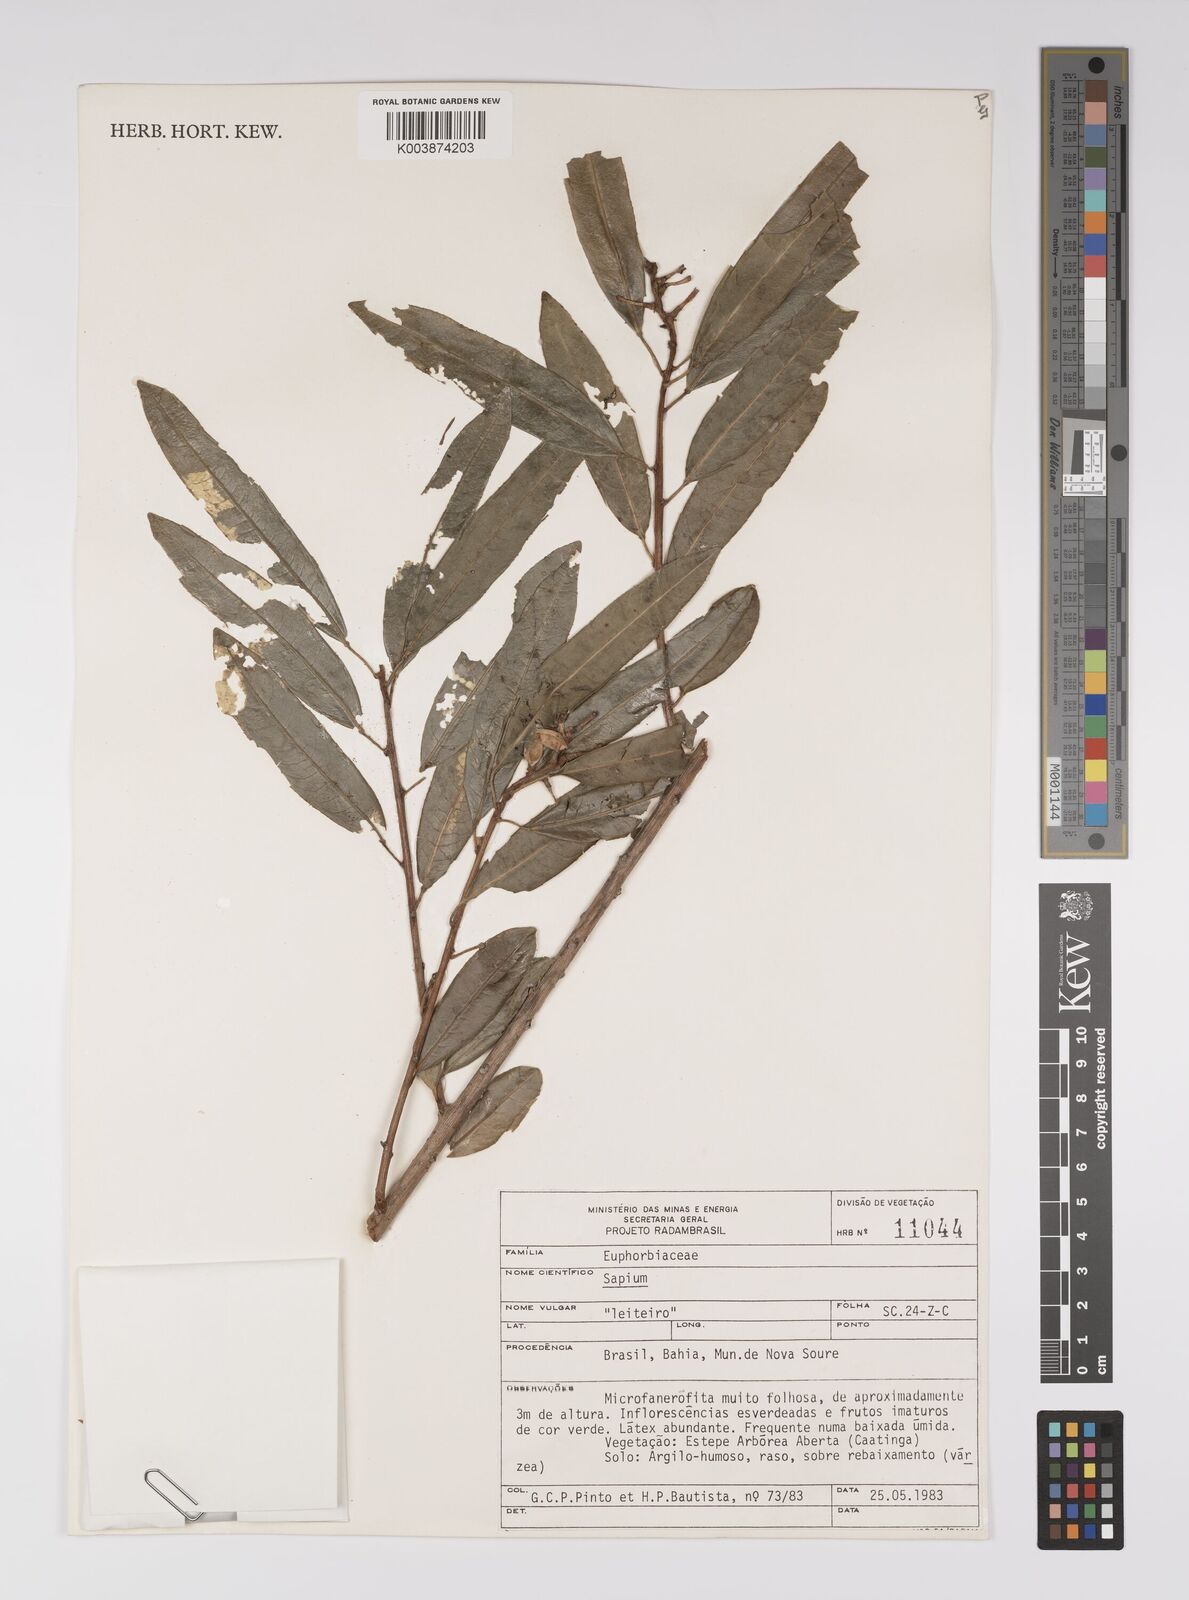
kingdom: Plantae
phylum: Tracheophyta
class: Magnoliopsida
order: Malpighiales
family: Euphorbiaceae
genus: Sapium
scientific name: Sapium
